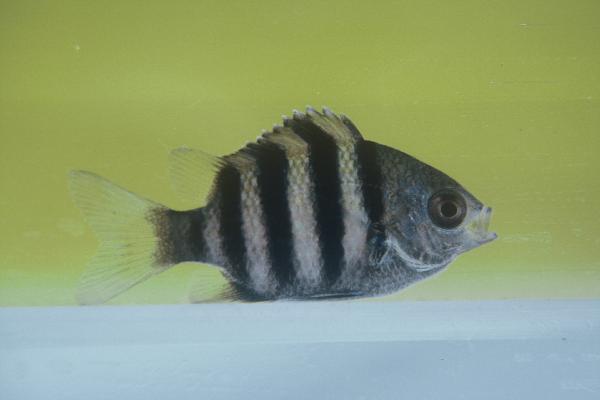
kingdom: Animalia
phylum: Chordata
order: Perciformes
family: Pomacentridae
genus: Abudefduf
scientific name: Abudefduf vaigiensis
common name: Indo-pacific sergeant
